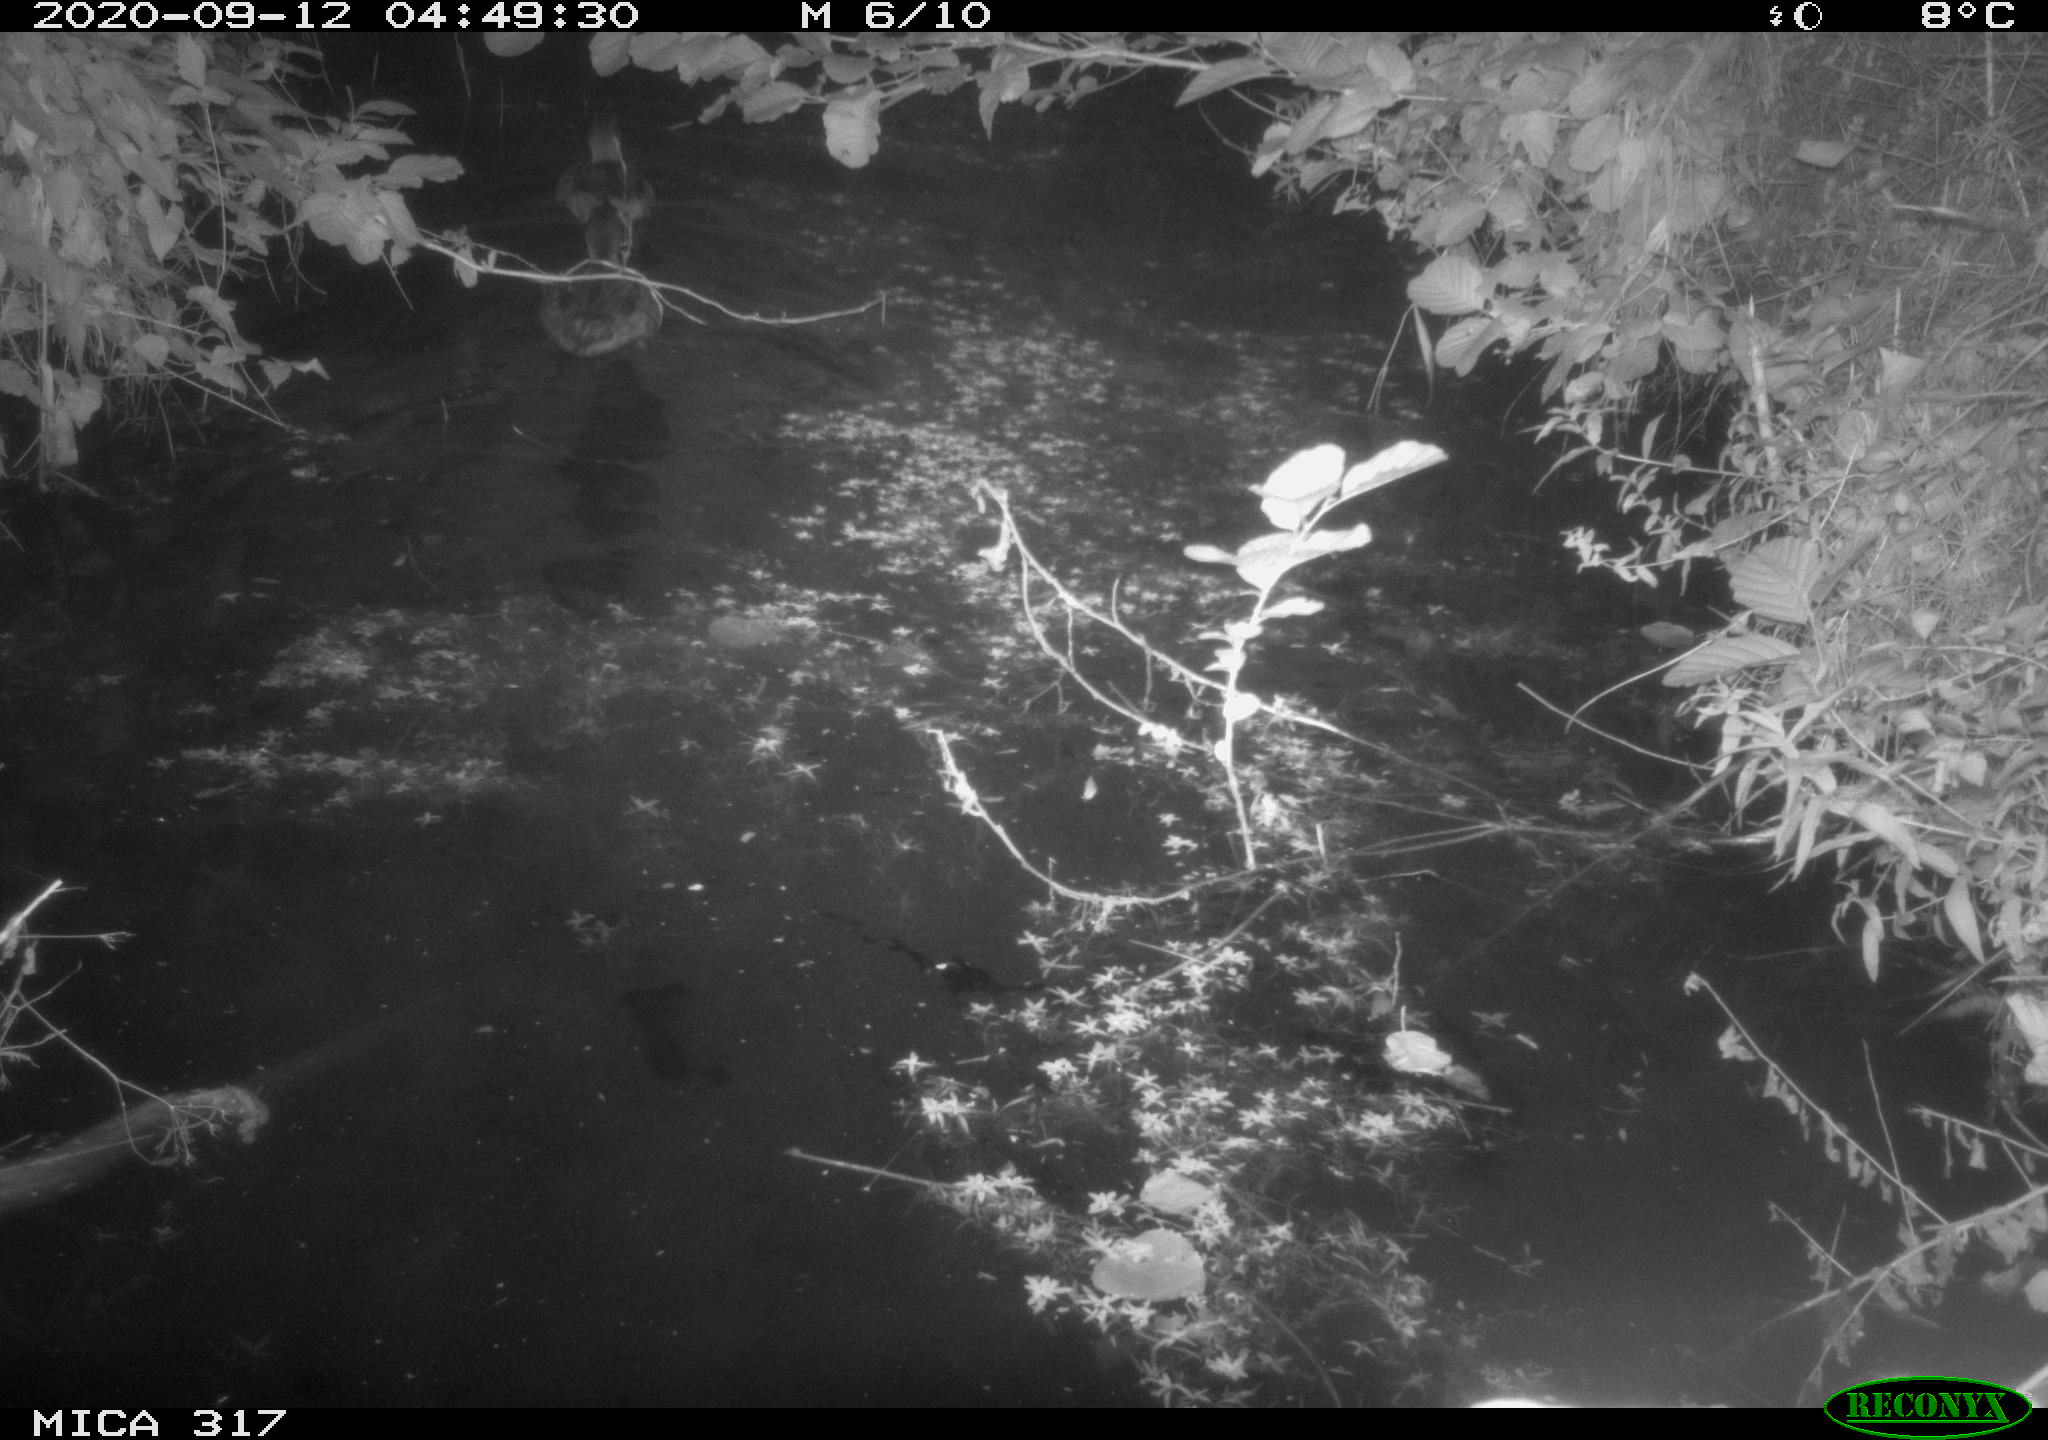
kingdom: Animalia
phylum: Chordata
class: Aves
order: Anseriformes
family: Anatidae
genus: Anas
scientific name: Anas platyrhynchos
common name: Mallard
